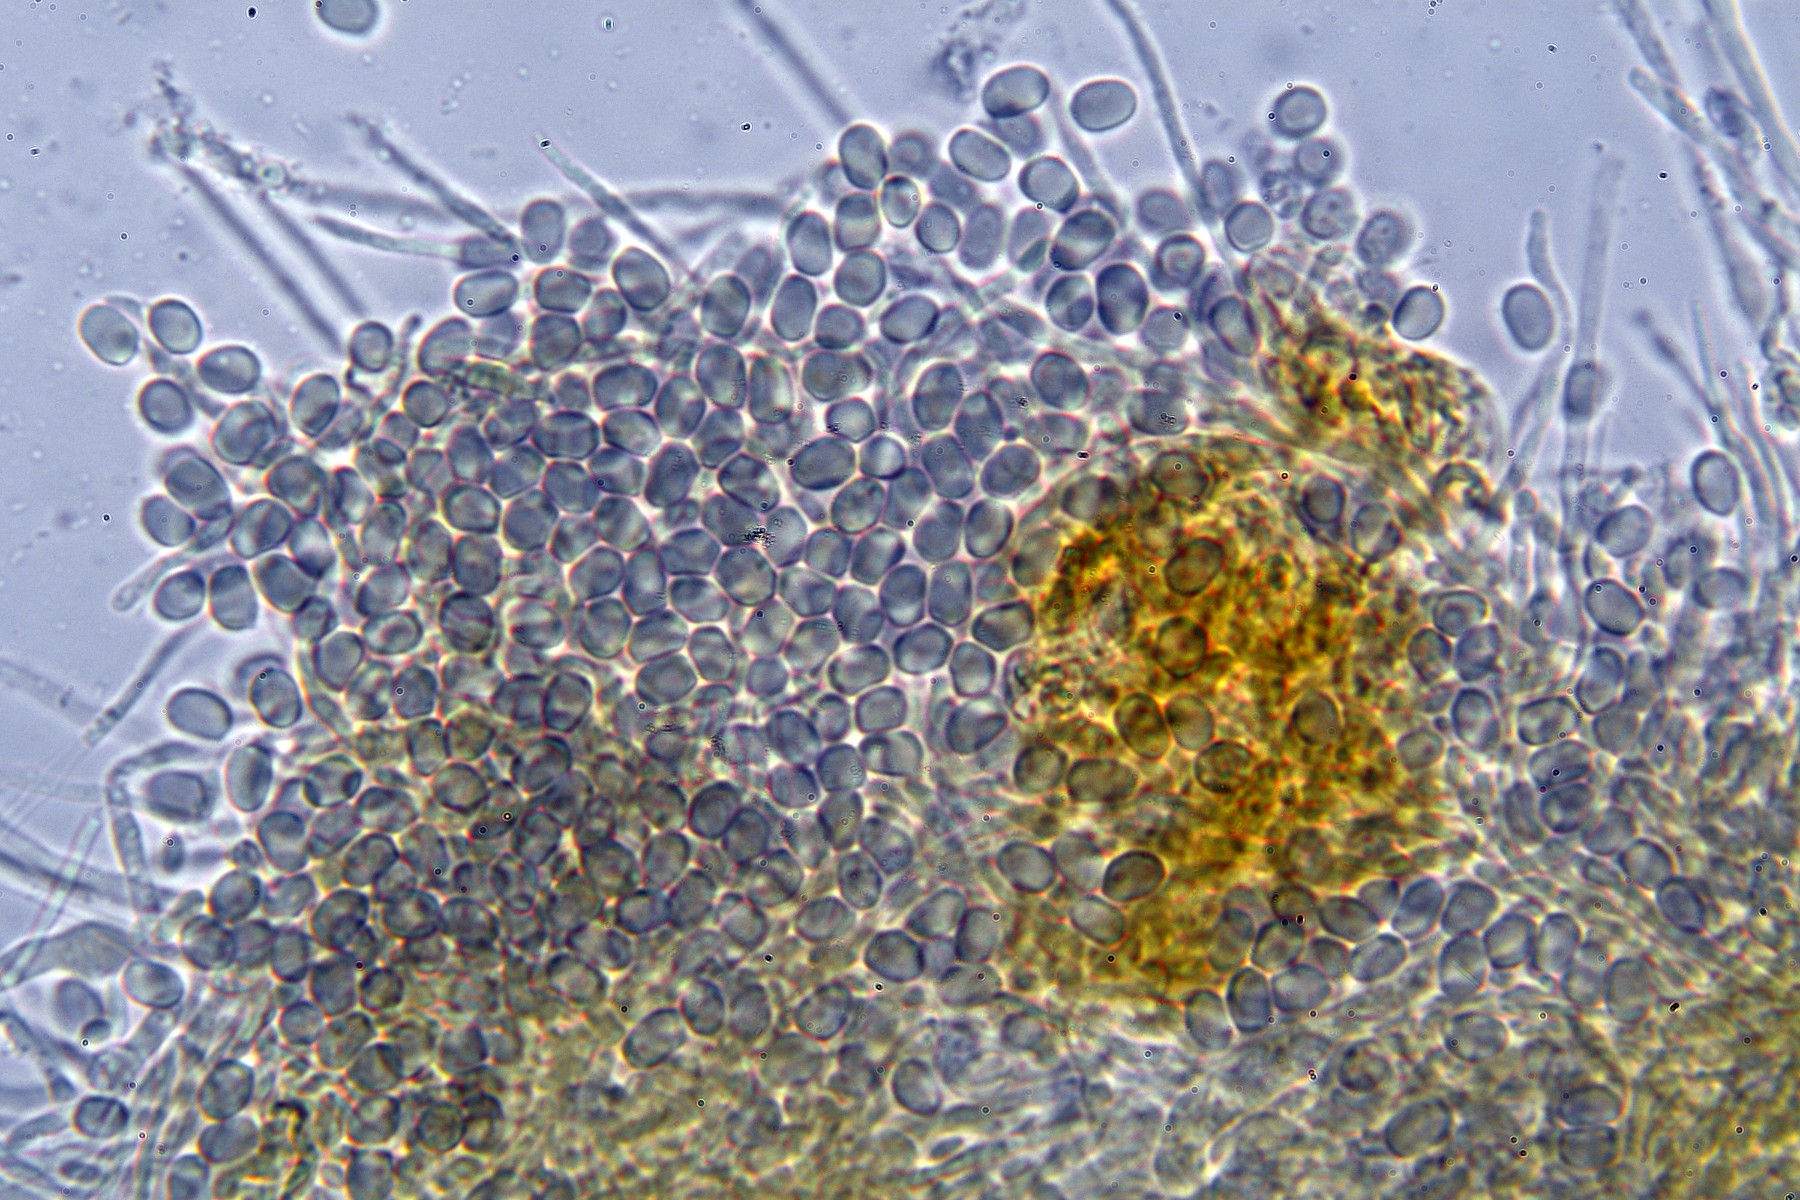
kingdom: Fungi
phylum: Basidiomycota
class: Agaricomycetes
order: Russulales
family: Peniophoraceae
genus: Gloiothele
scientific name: Gloiothele lactescens
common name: bitter olieskind
